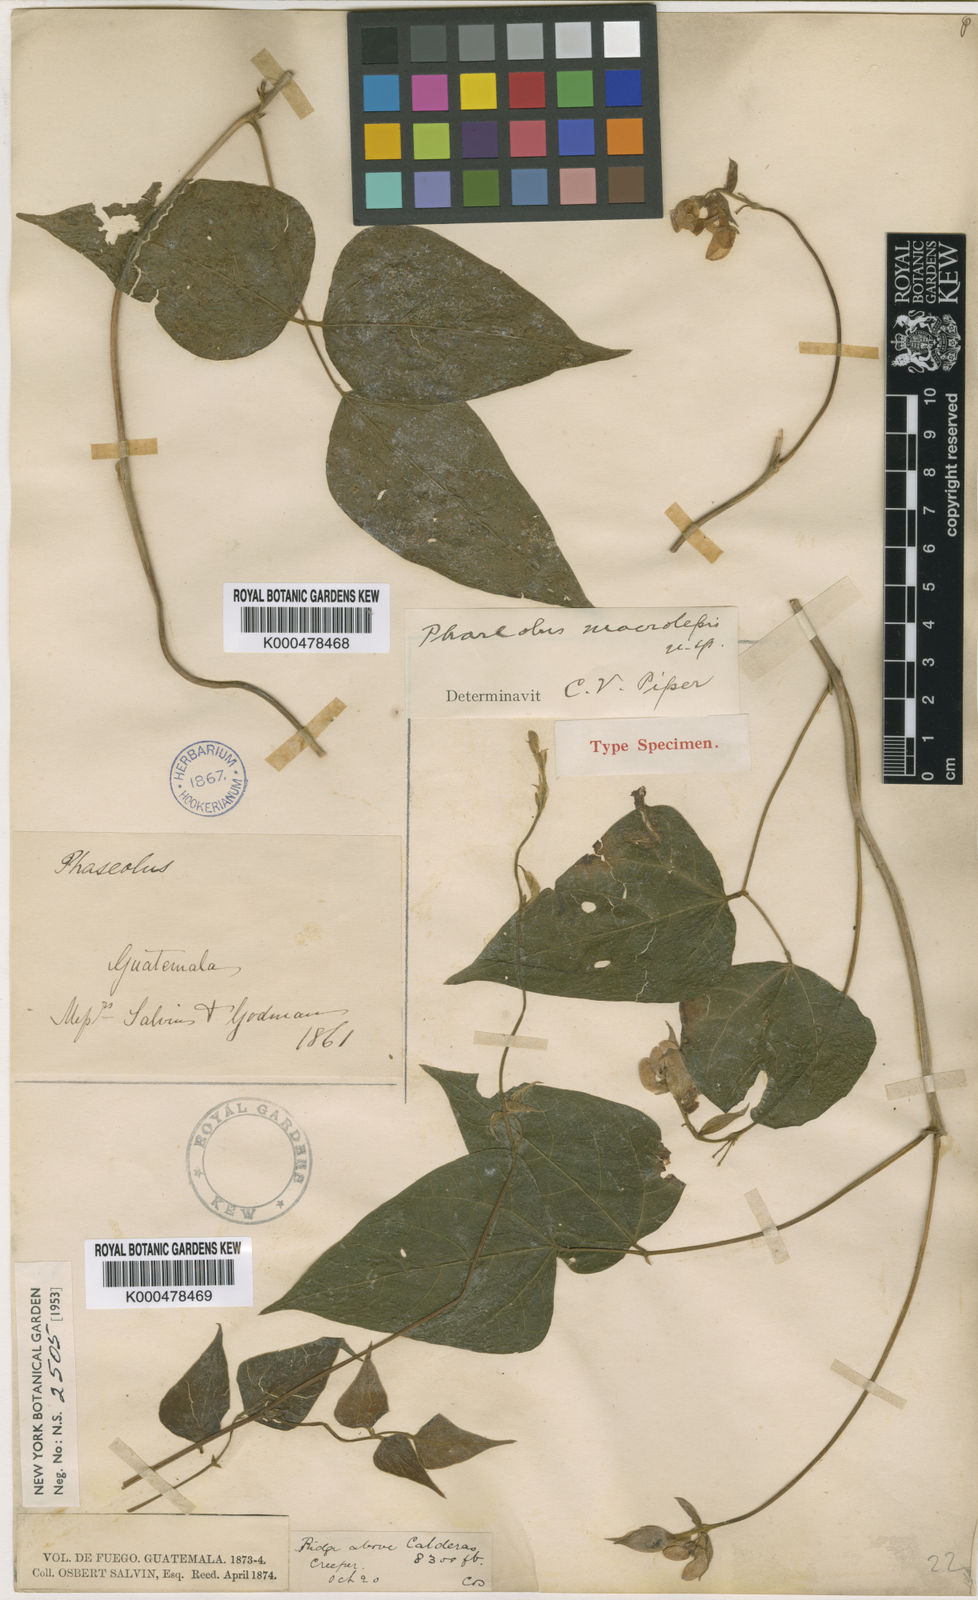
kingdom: Plantae
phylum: Tracheophyta
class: Magnoliopsida
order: Fabales
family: Fabaceae
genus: Phaseolus
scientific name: Phaseolus macrolepis
